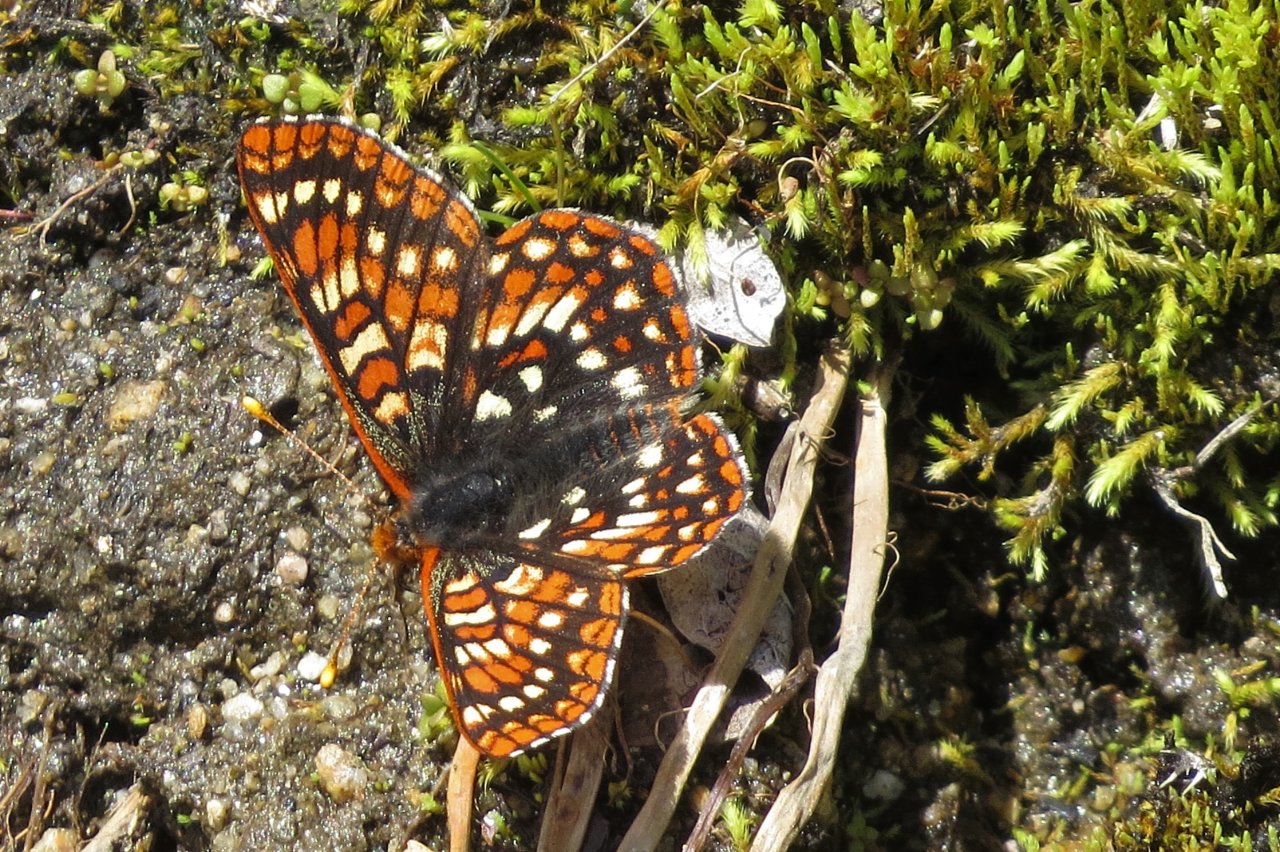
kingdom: Animalia
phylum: Arthropoda
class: Insecta
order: Lepidoptera
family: Nymphalidae
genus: Occidryas
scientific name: Occidryas editha
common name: Edith's Checkerspot
